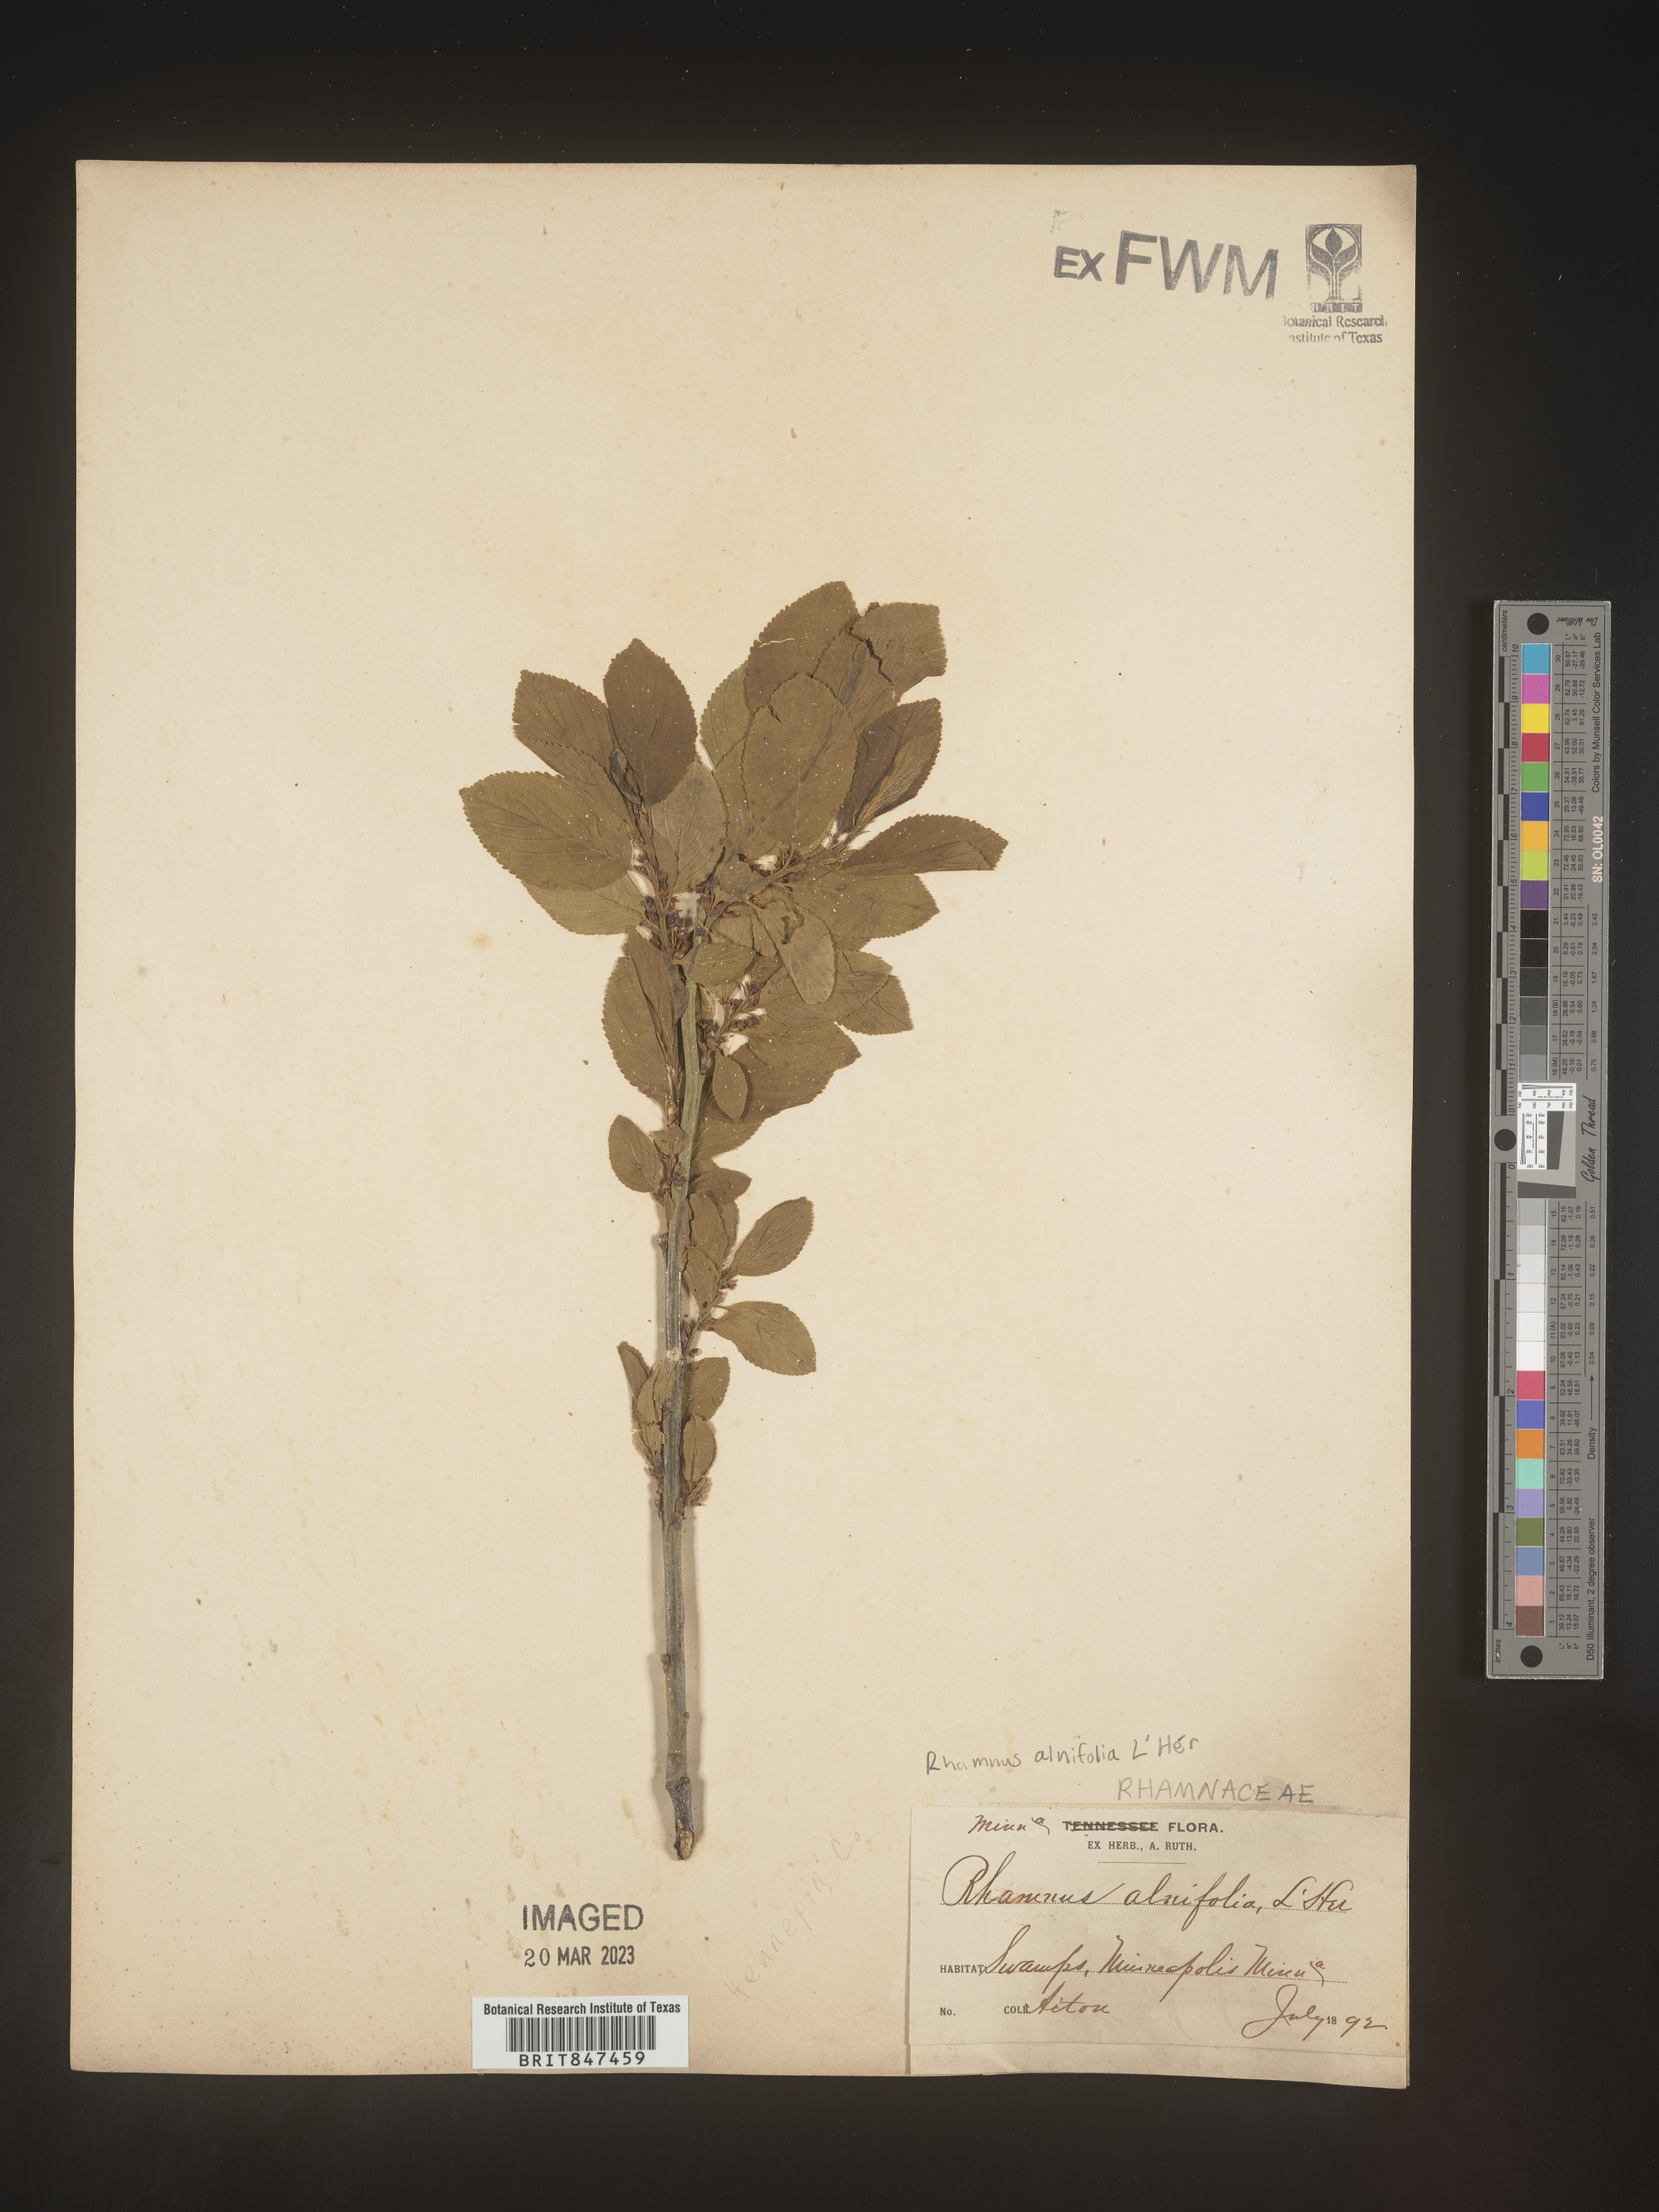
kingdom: Plantae
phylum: Tracheophyta
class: Magnoliopsida
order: Rosales
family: Rhamnaceae
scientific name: Rhamnaceae
